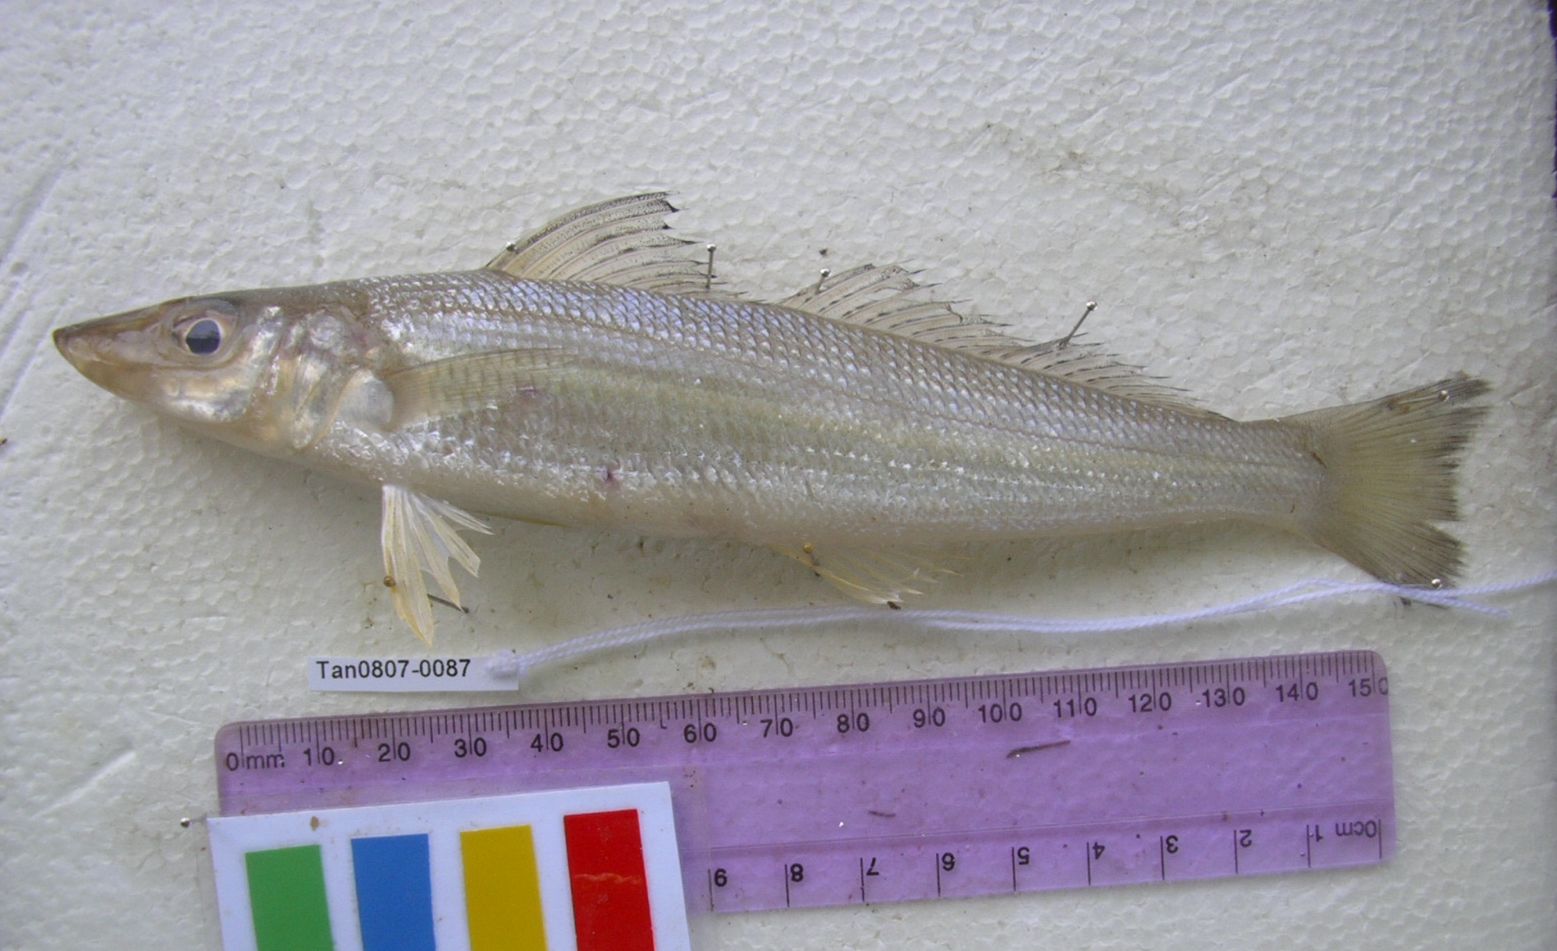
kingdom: Animalia
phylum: Chordata
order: Perciformes
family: Sillaginidae
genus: Sillago
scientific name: Sillago sihama
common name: Silver sillago
